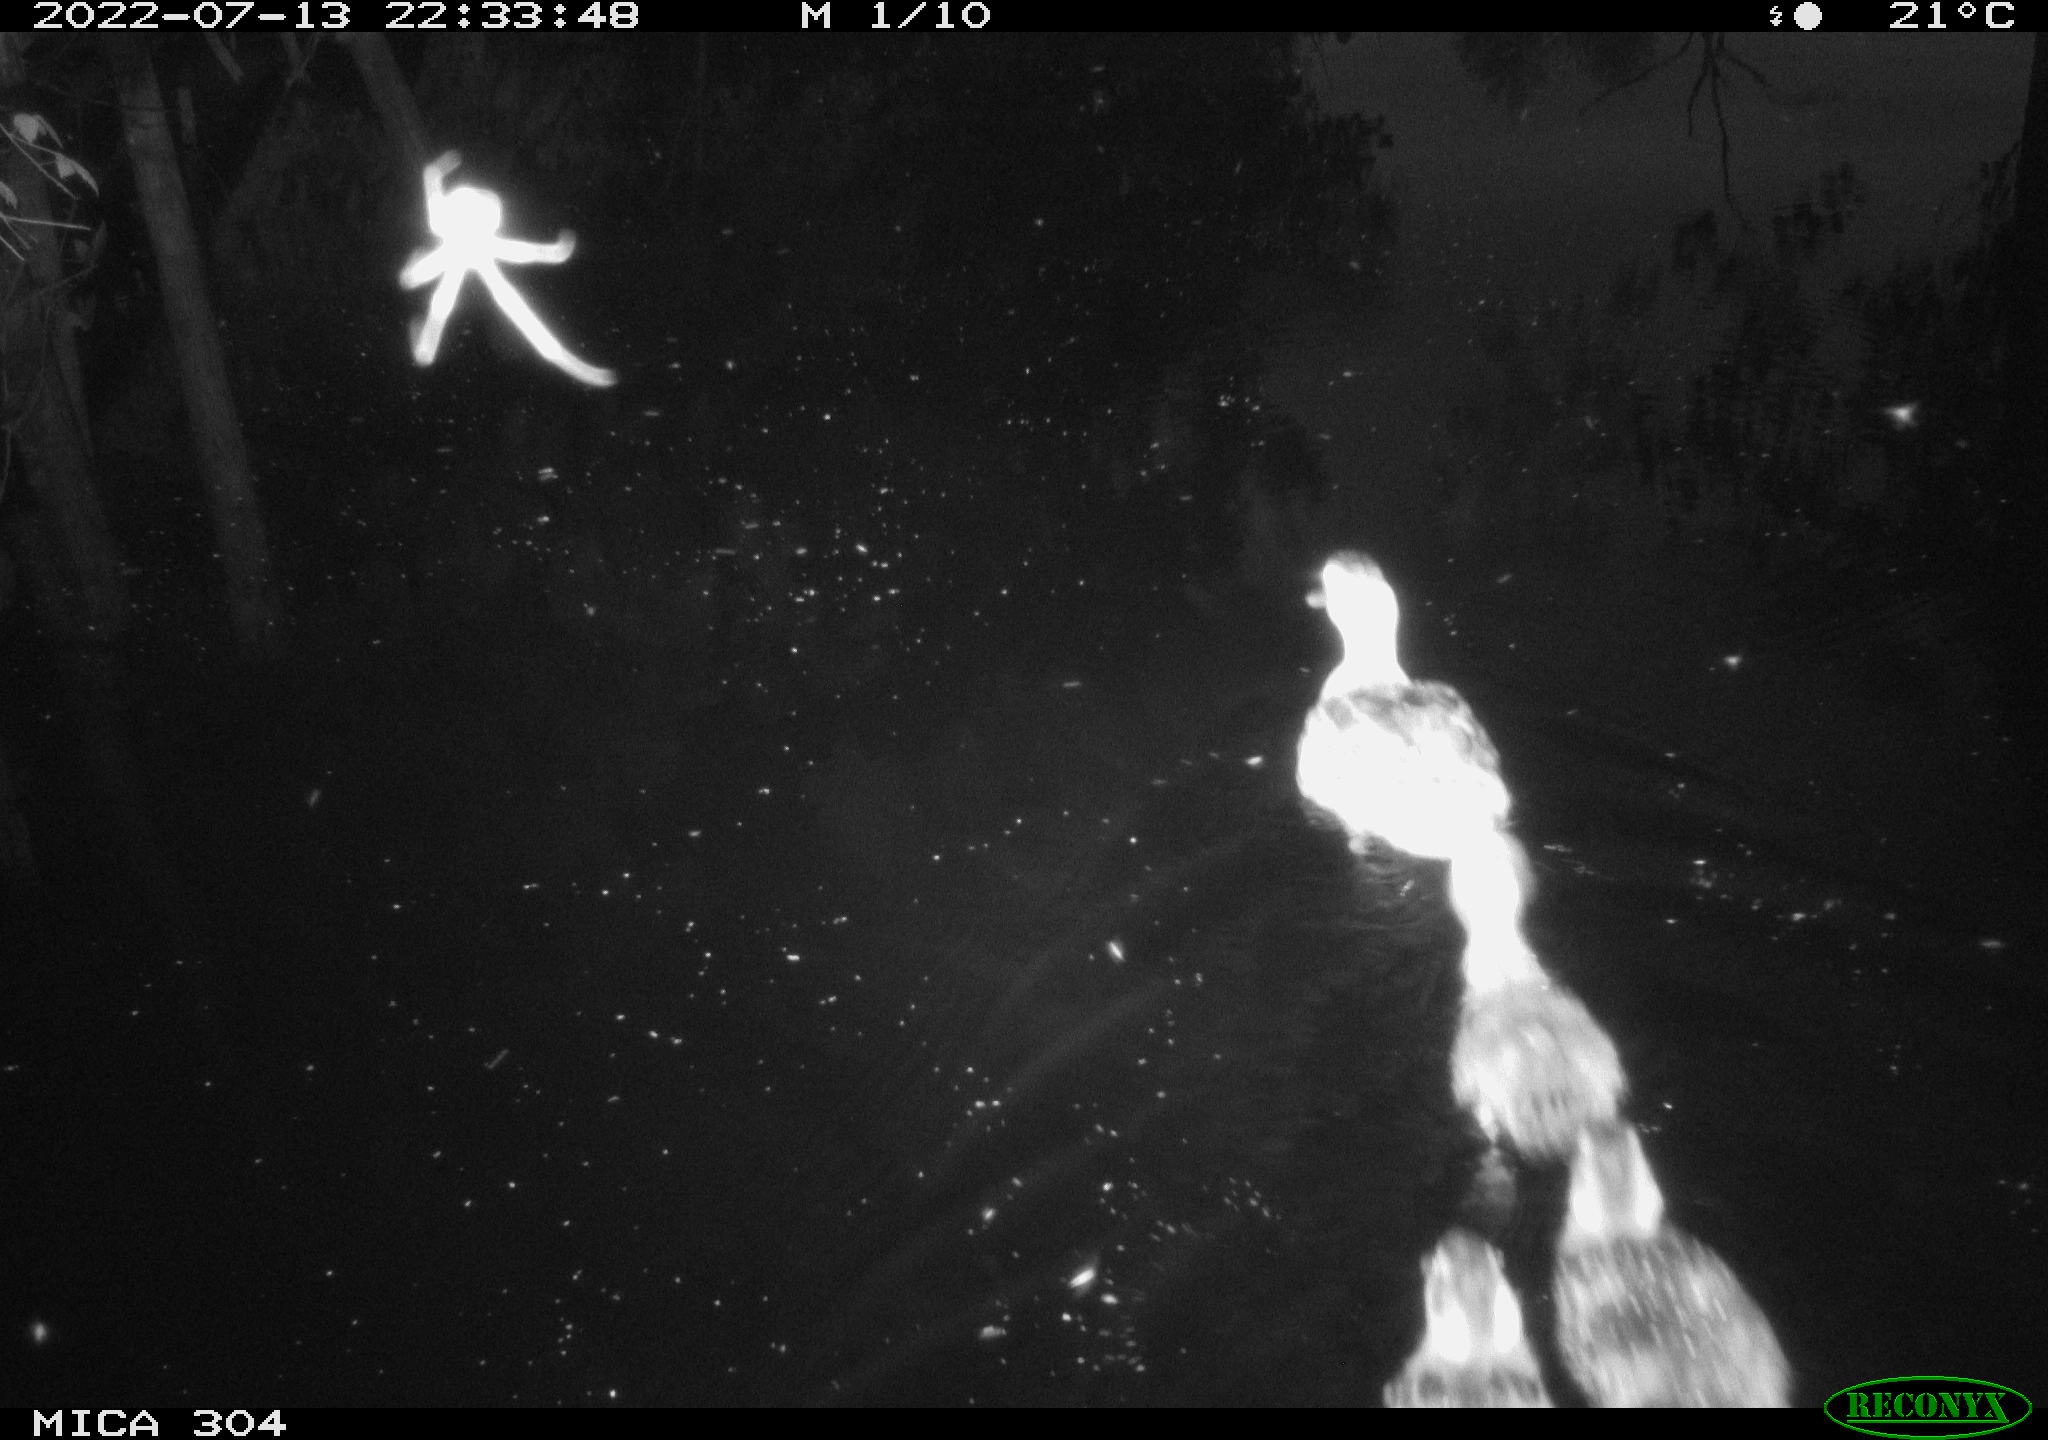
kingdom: Animalia
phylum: Chordata
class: Aves
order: Anseriformes
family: Anatidae
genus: Mareca
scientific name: Mareca strepera
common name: Gadwall
